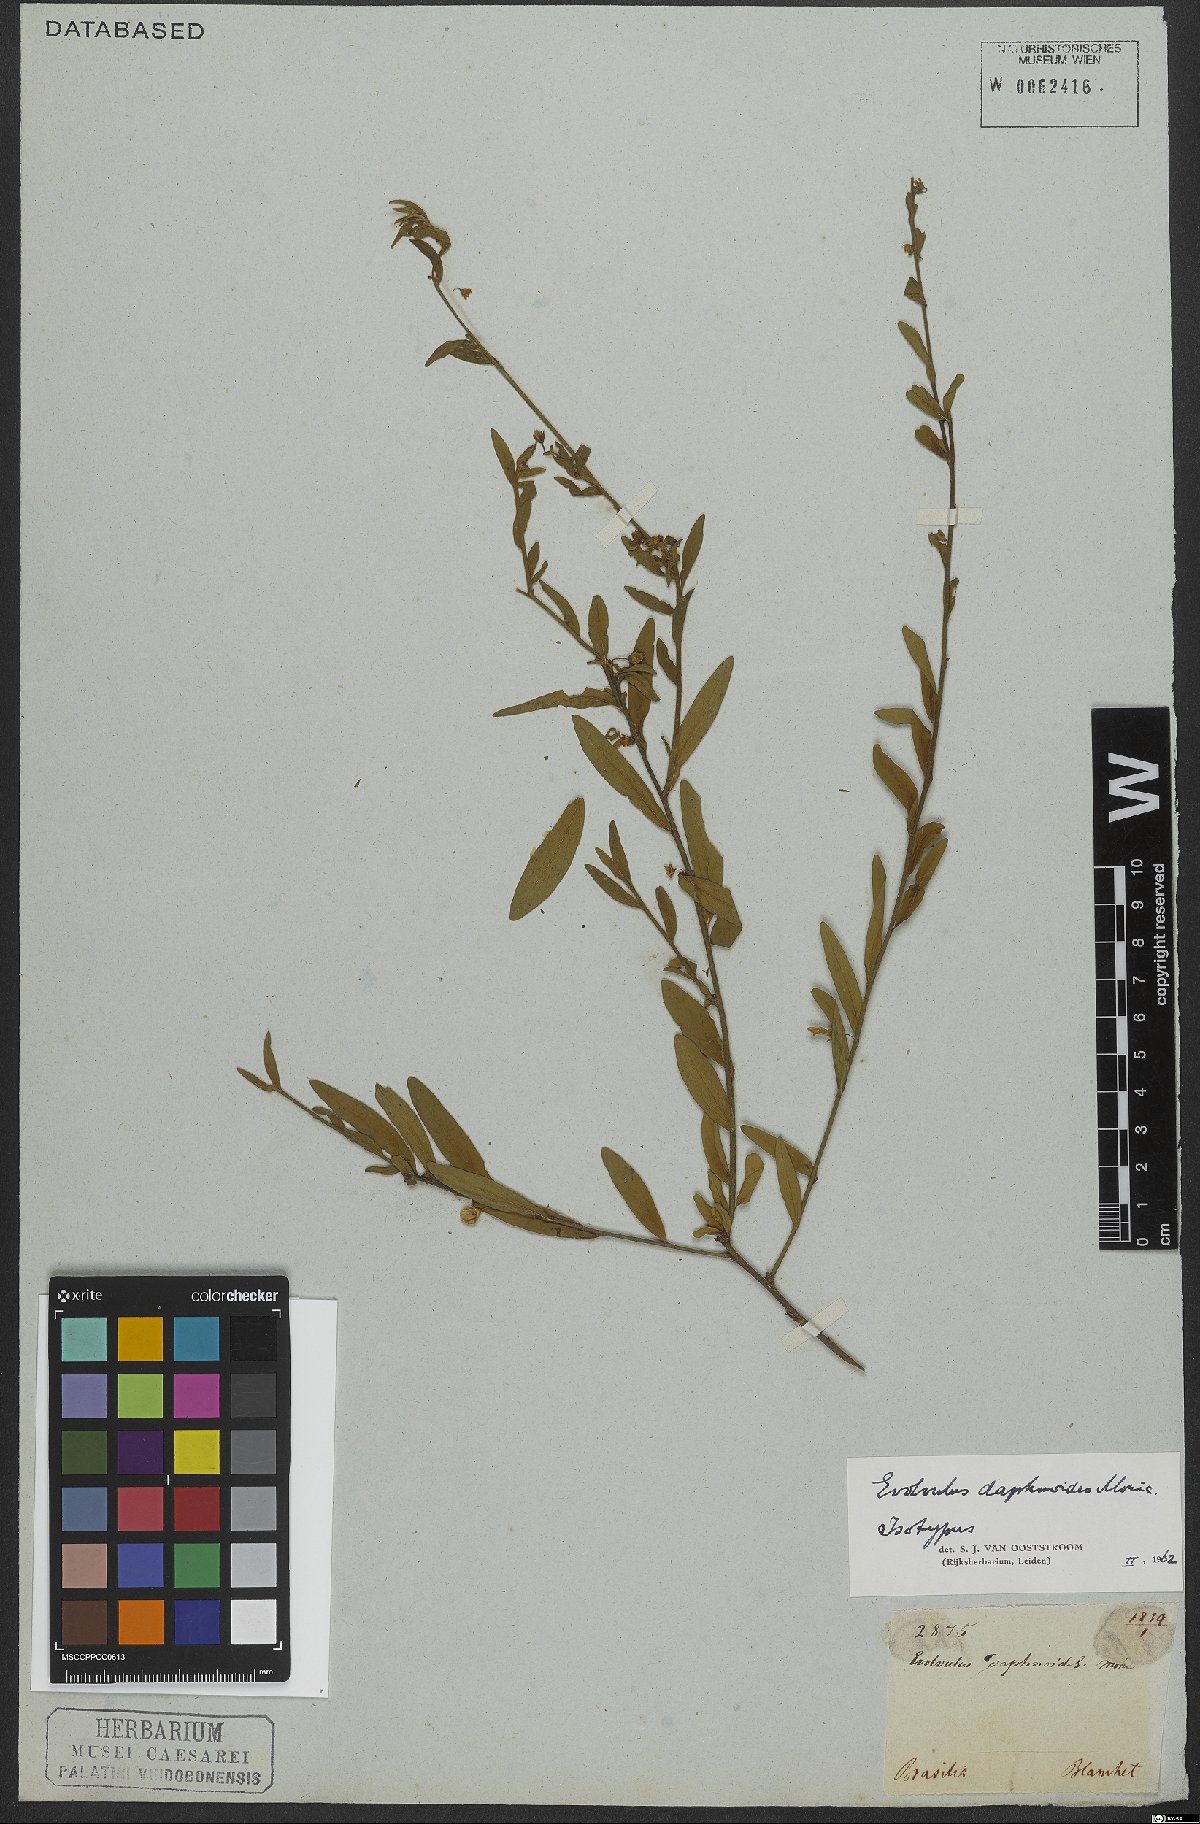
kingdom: Plantae
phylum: Tracheophyta
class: Magnoliopsida
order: Solanales
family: Convolvulaceae
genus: Evolvulus
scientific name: Evolvulus daphnoides
